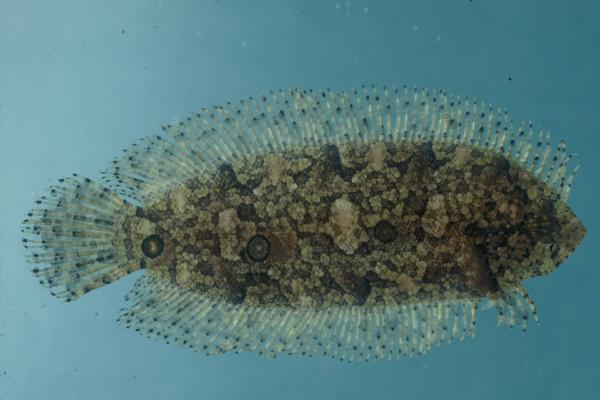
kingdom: Animalia
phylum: Chordata
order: Pleuronectiformes
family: Samaridae
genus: Samariscus
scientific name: Samariscus triocellatus
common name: Three-spot righteye flounder
